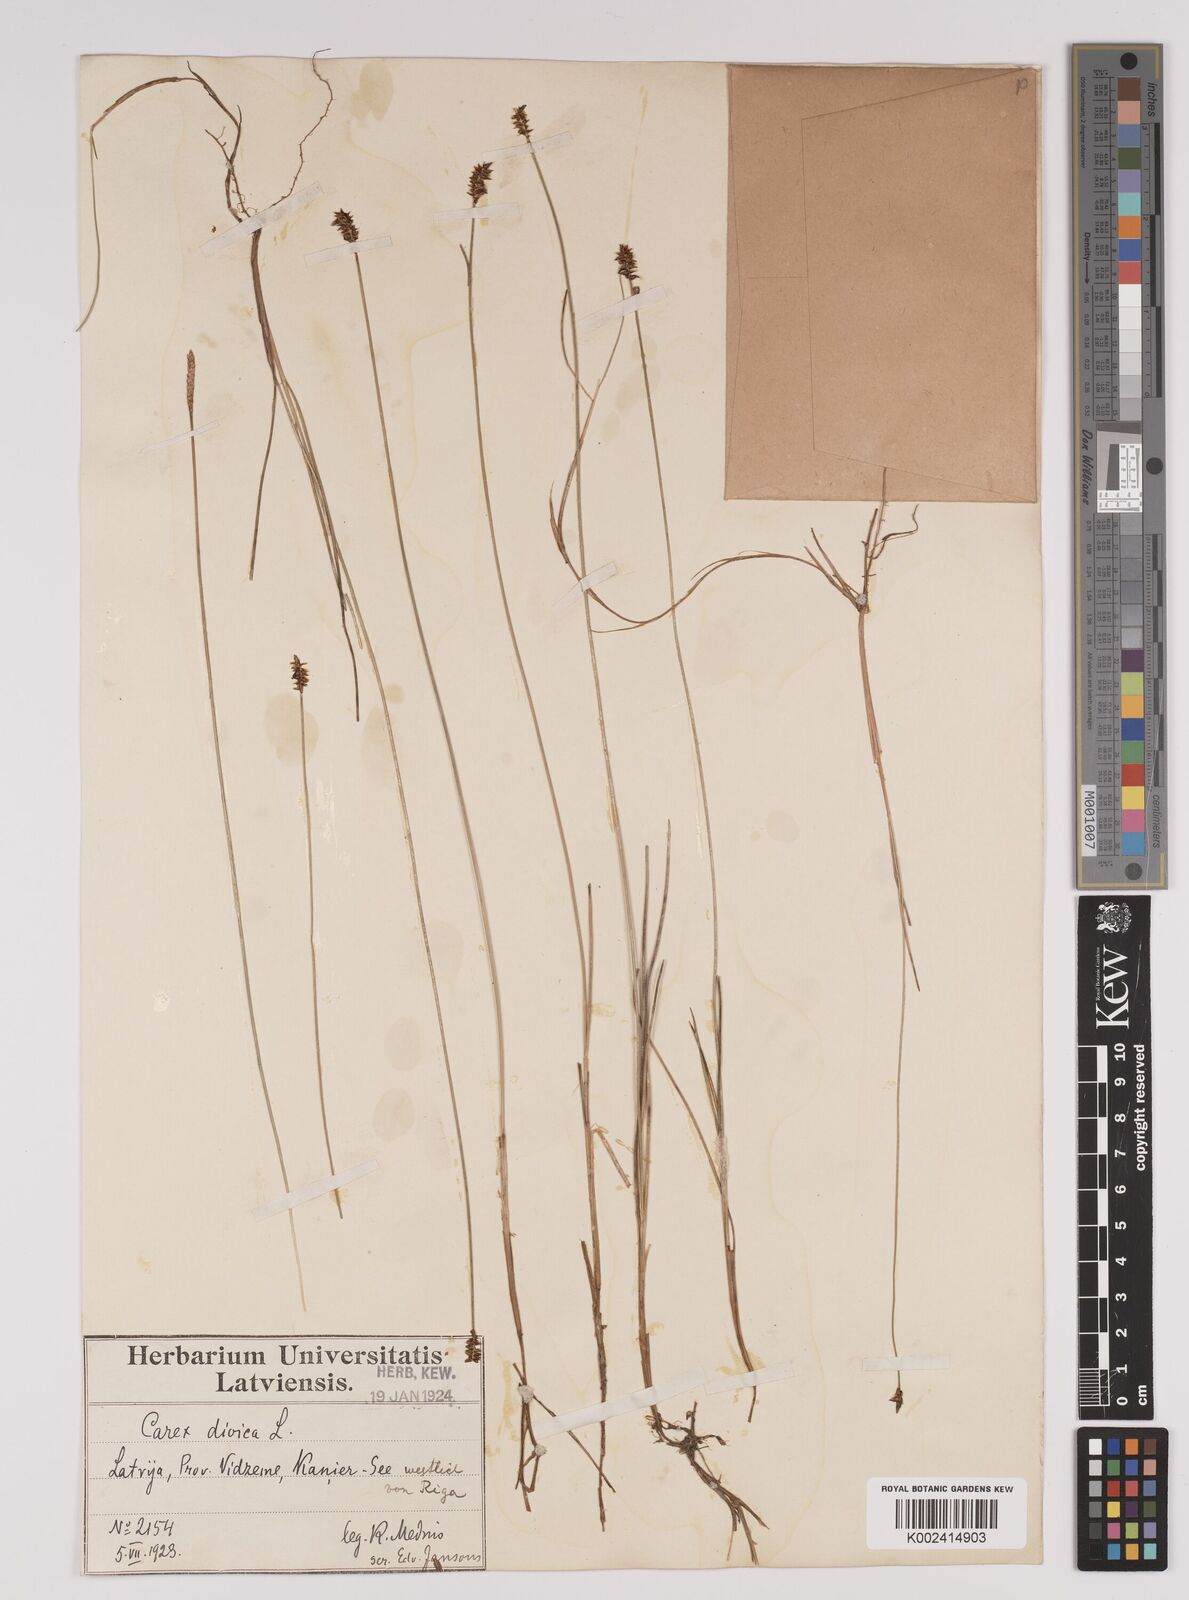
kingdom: Plantae
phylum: Tracheophyta
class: Liliopsida
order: Poales
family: Cyperaceae
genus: Carex
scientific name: Carex dioica
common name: Dioecious sedge
